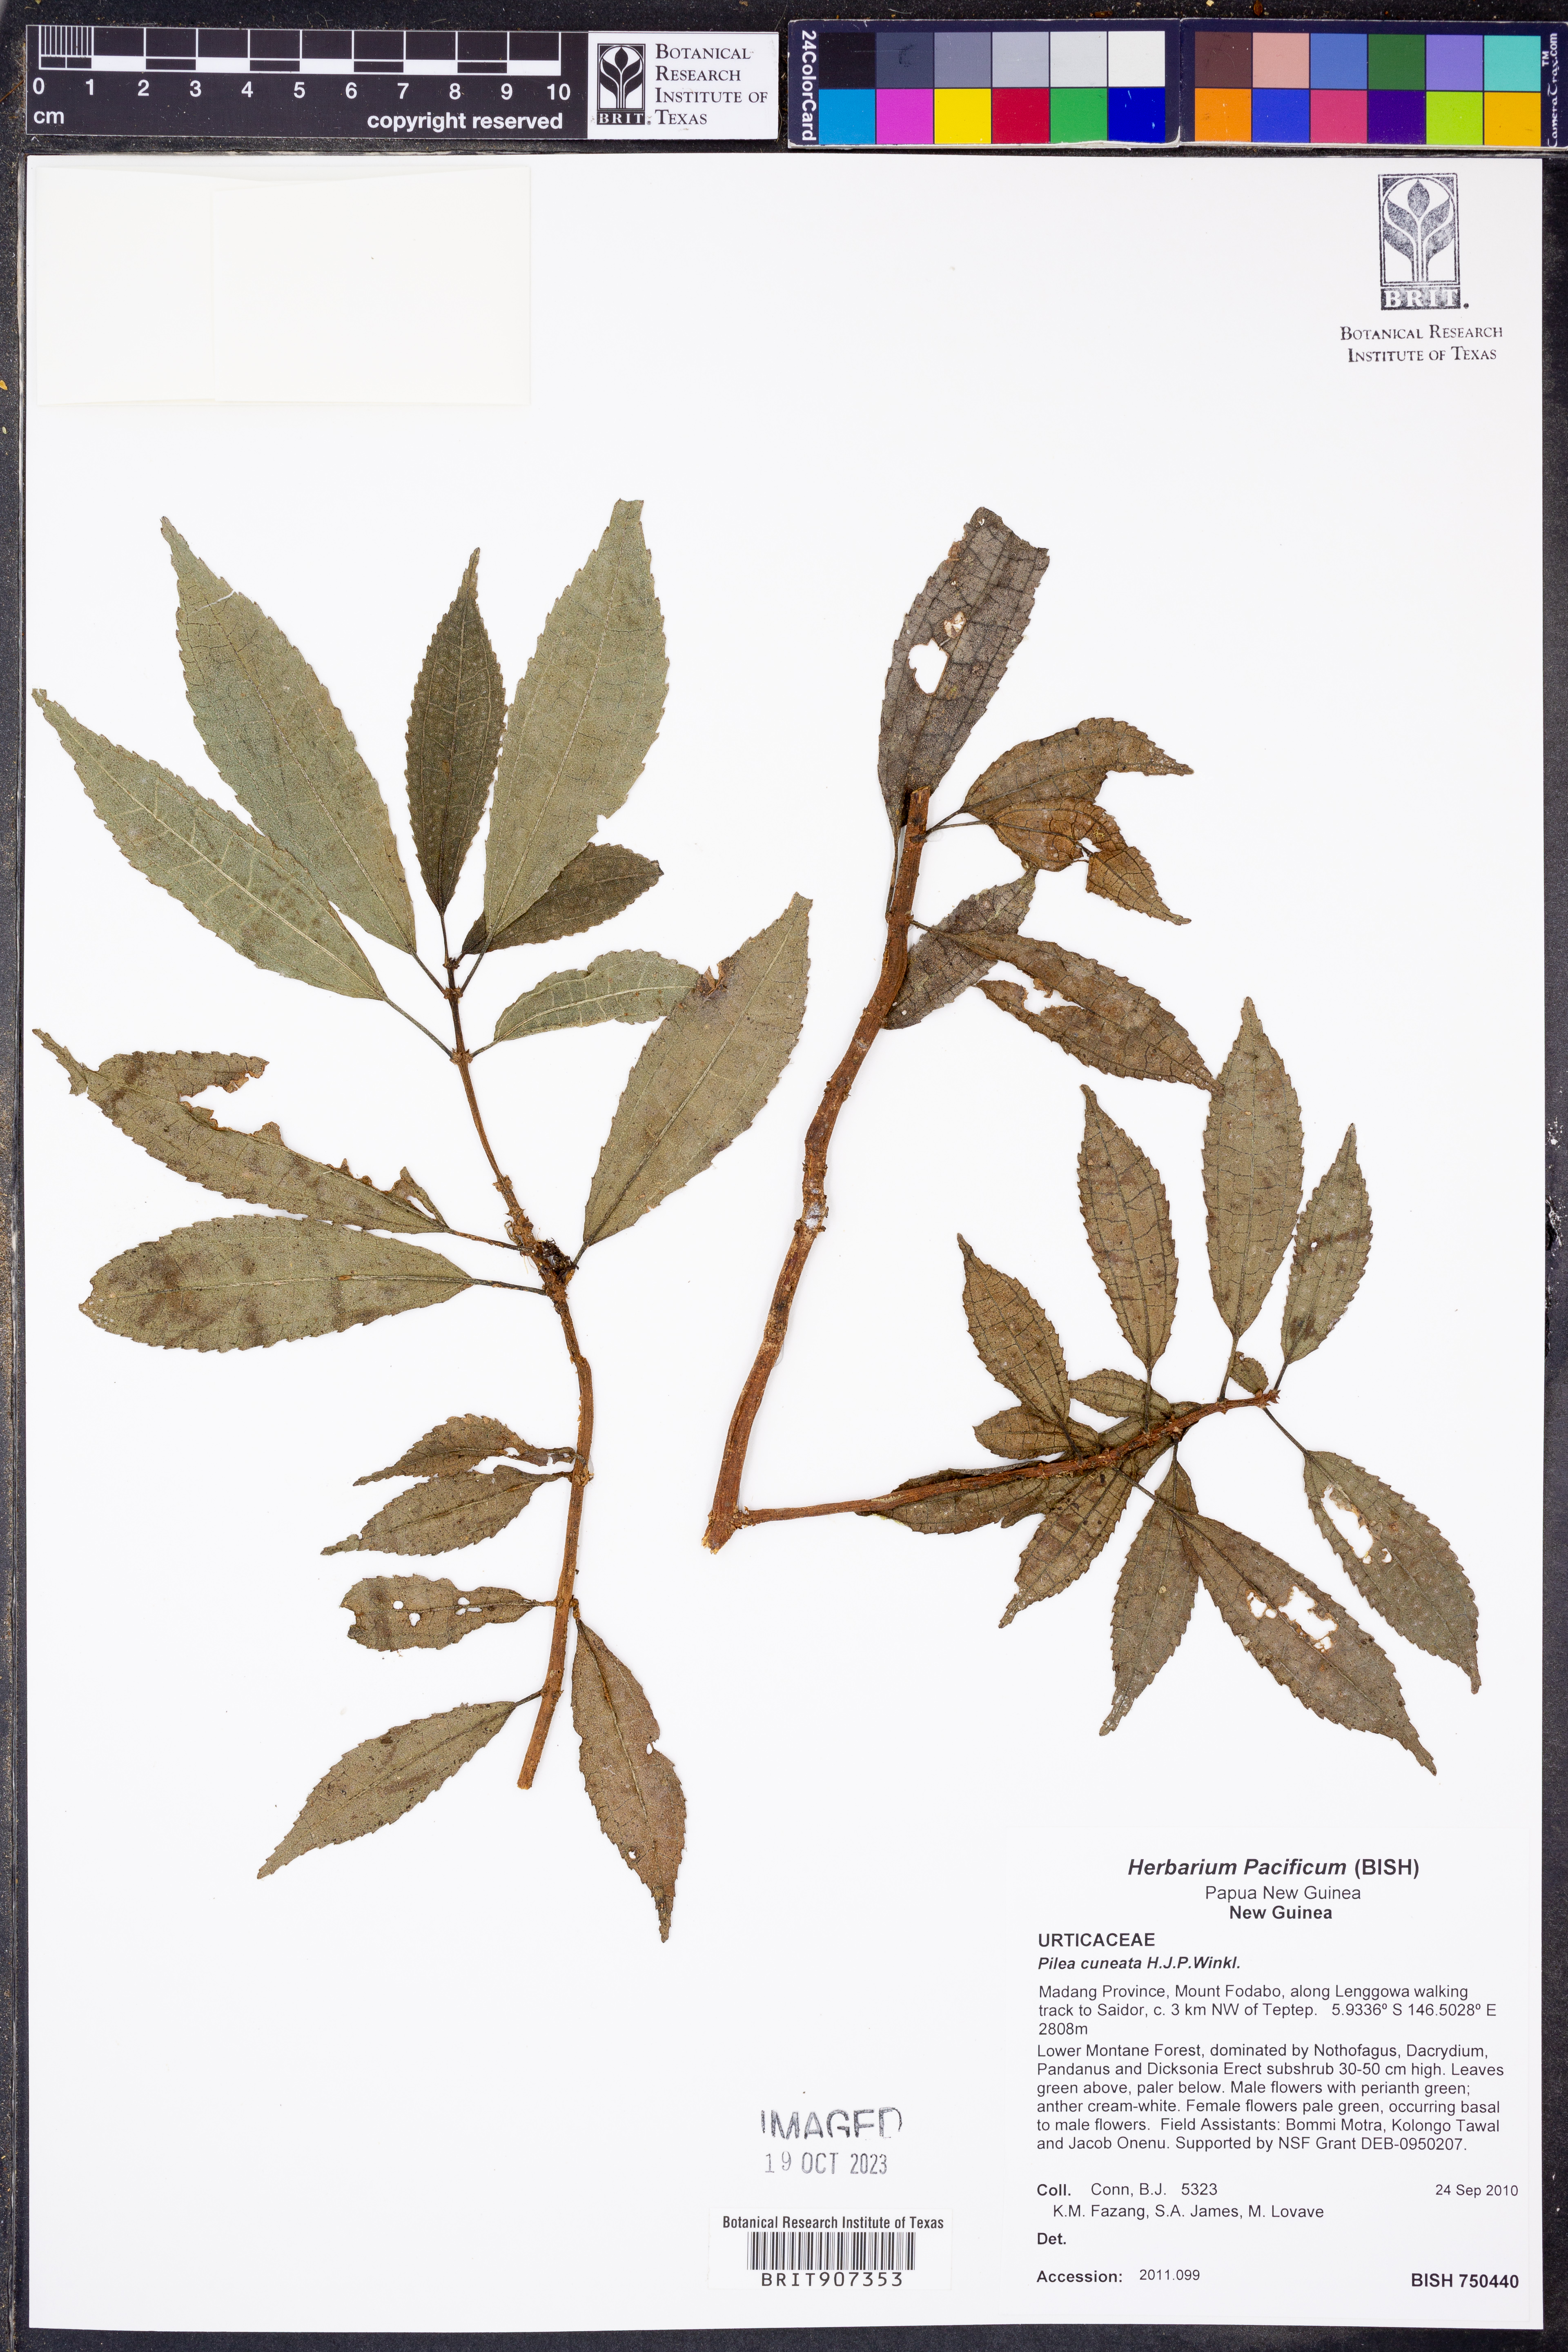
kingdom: Plantae
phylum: Tracheophyta
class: Magnoliopsida
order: Rosales
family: Urticaceae
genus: Pilea
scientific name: Pilea cuneata
